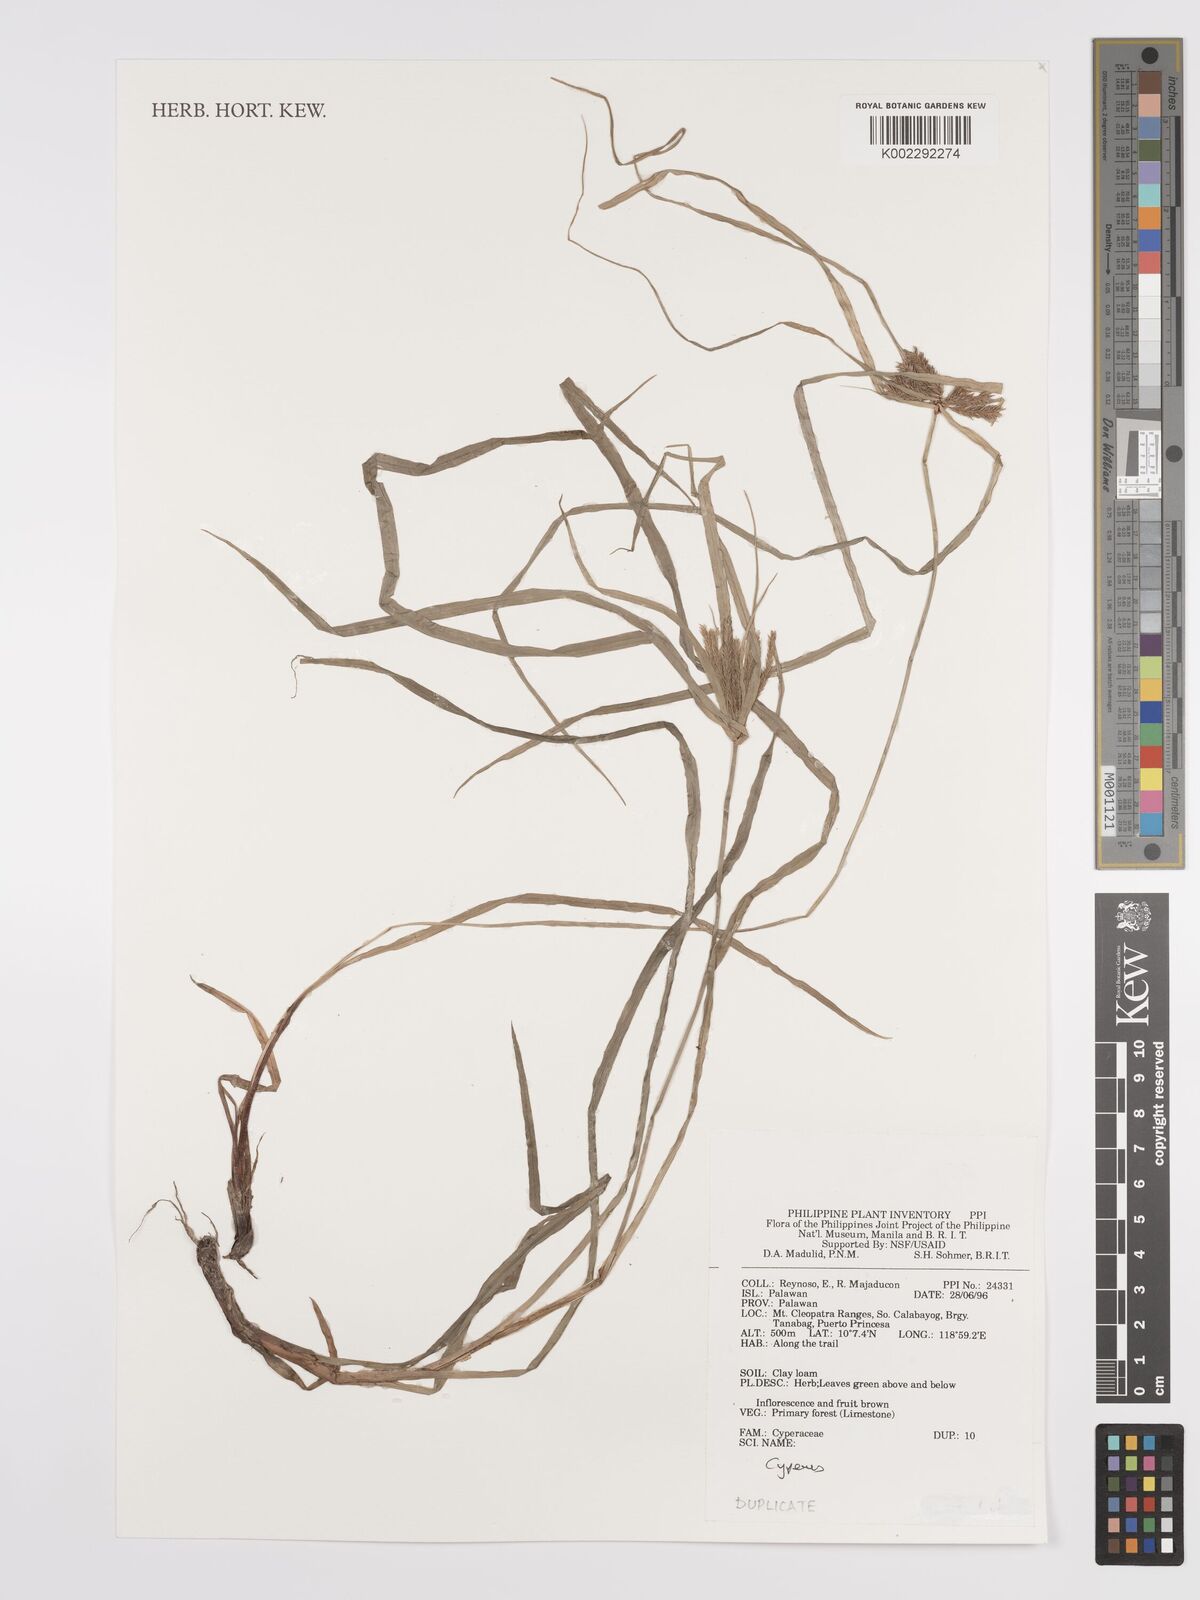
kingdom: Plantae
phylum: Tracheophyta
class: Liliopsida
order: Poales
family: Cyperaceae
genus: Cyperus
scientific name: Cyperus
